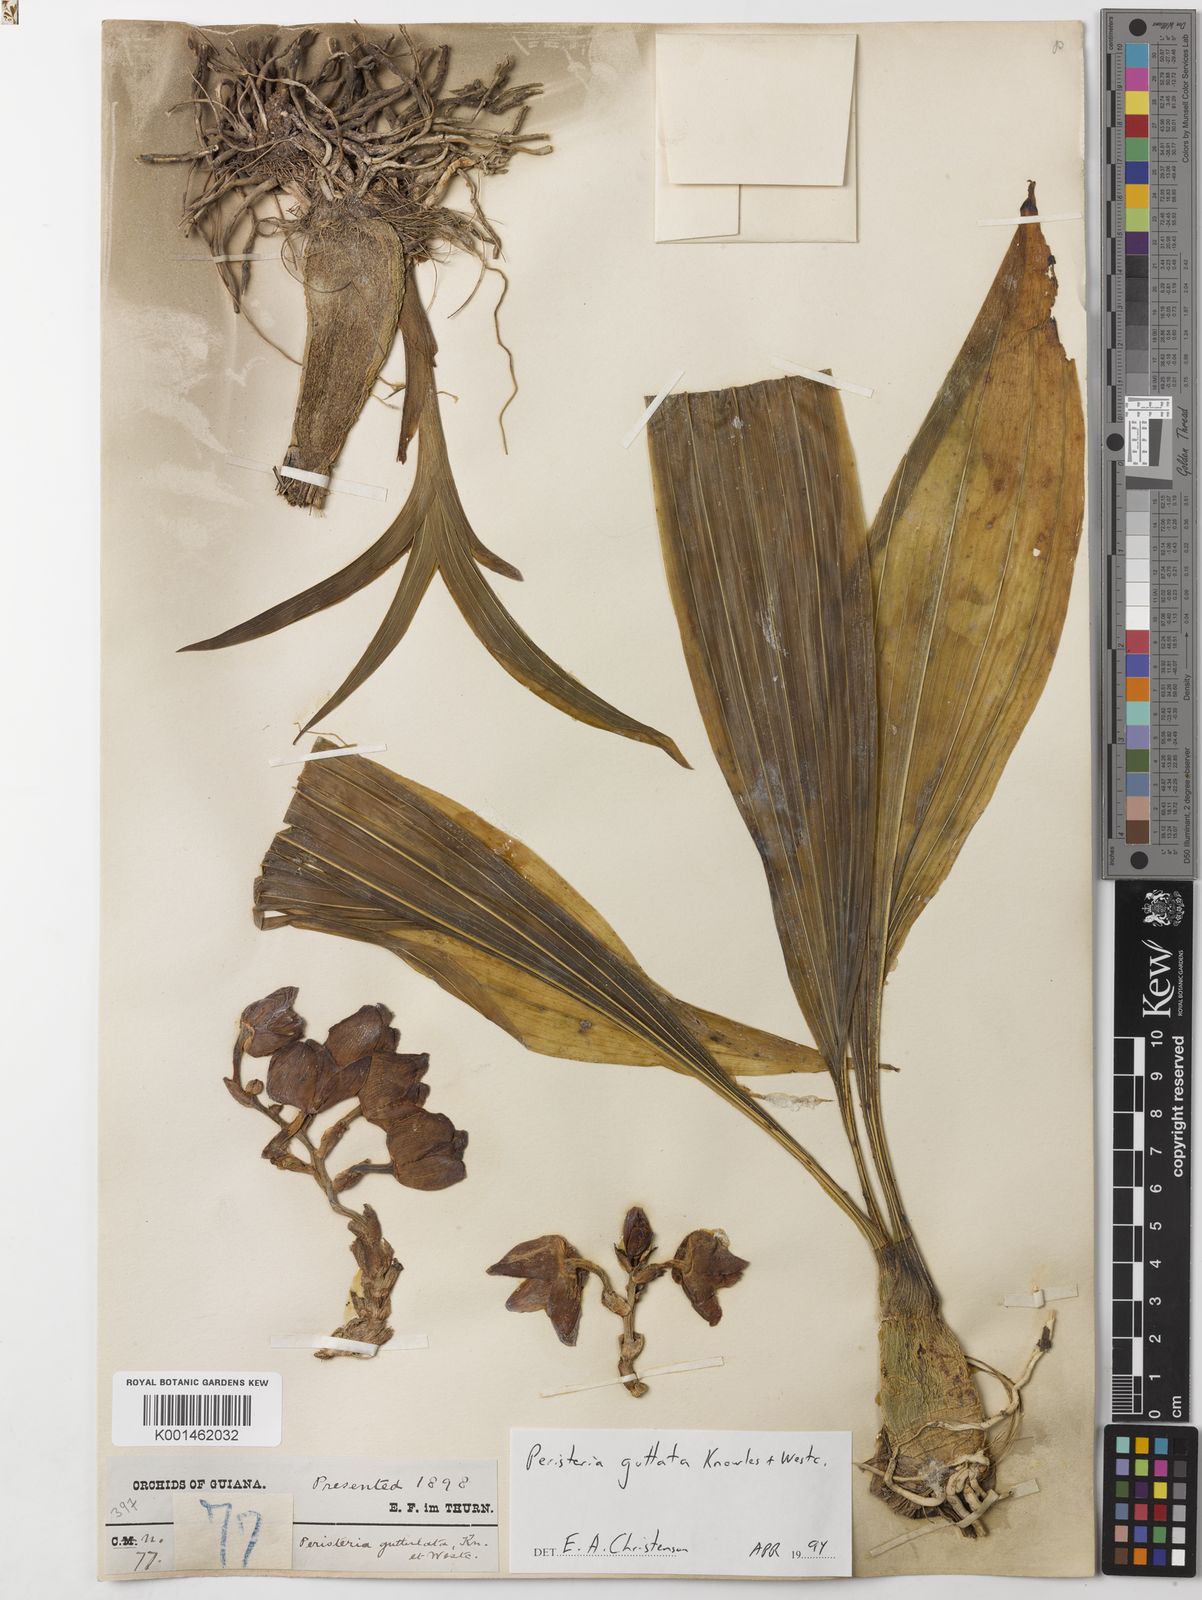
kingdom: Plantae
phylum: Tracheophyta
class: Liliopsida
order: Asparagales
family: Orchidaceae
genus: Peristeria
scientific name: Peristeria guttata
